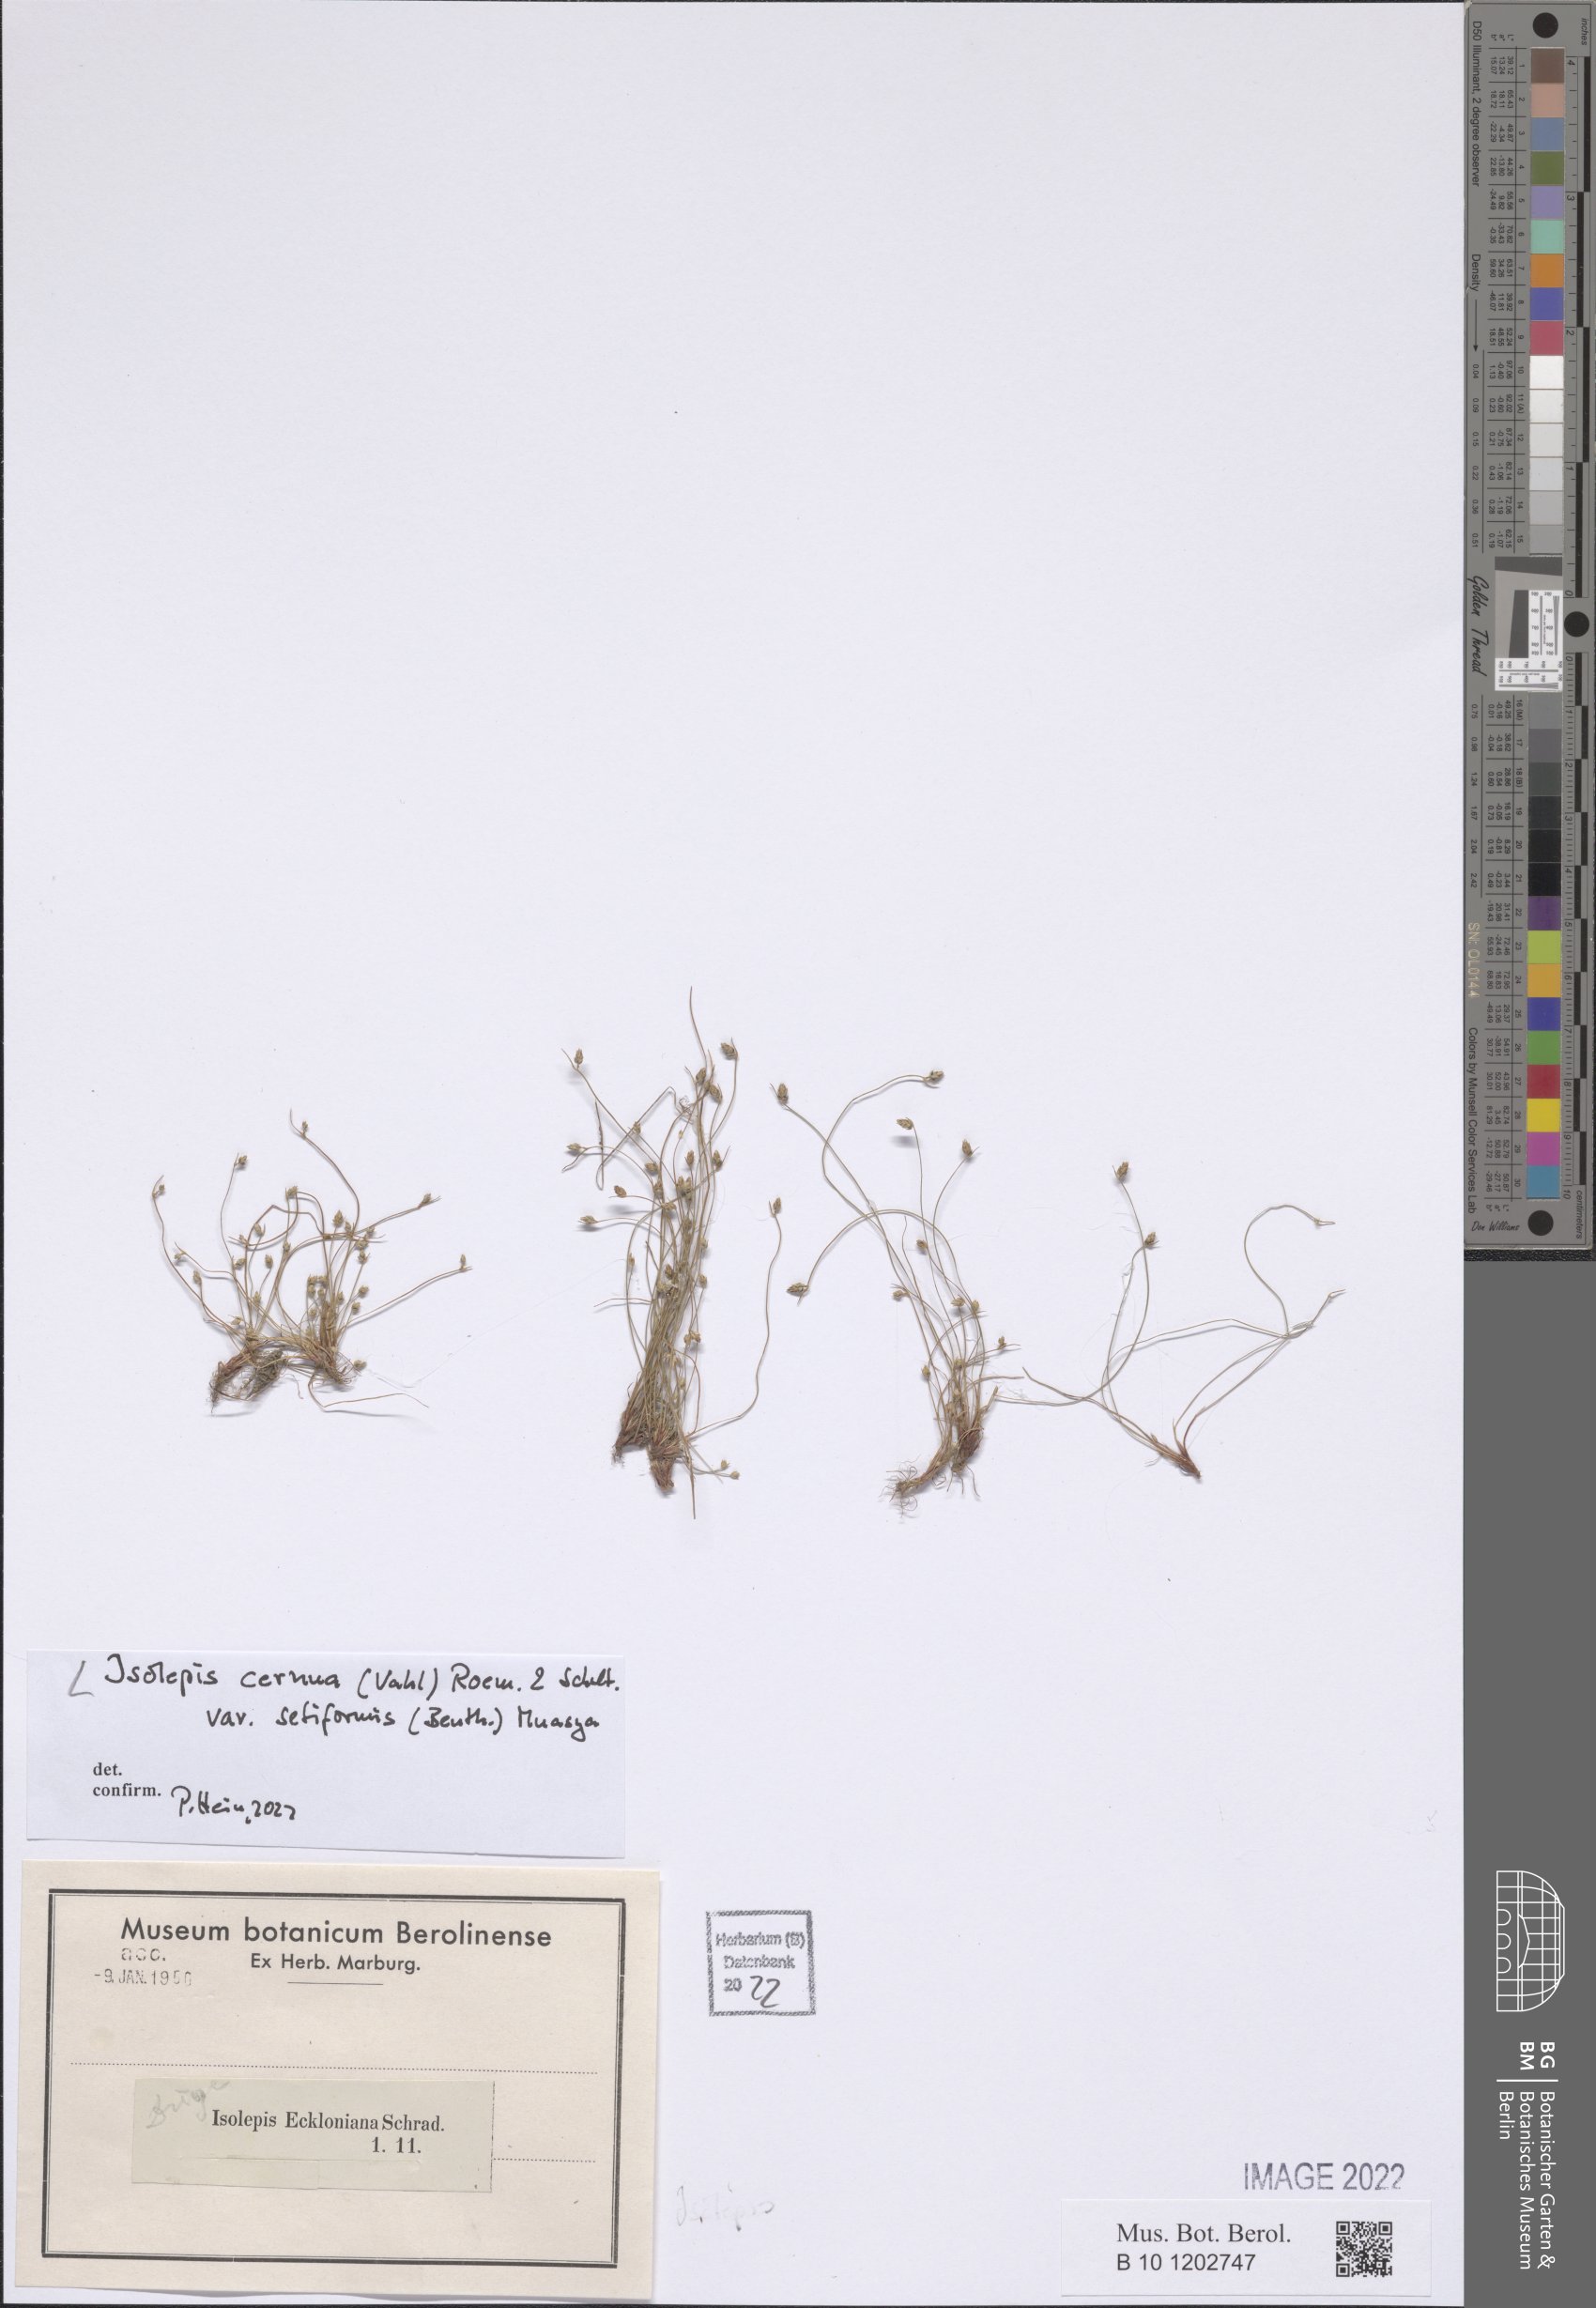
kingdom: Plantae
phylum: Tracheophyta
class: Liliopsida
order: Poales
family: Cyperaceae
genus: Isolepis
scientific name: Isolepis cernua
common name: Slender club-rush
